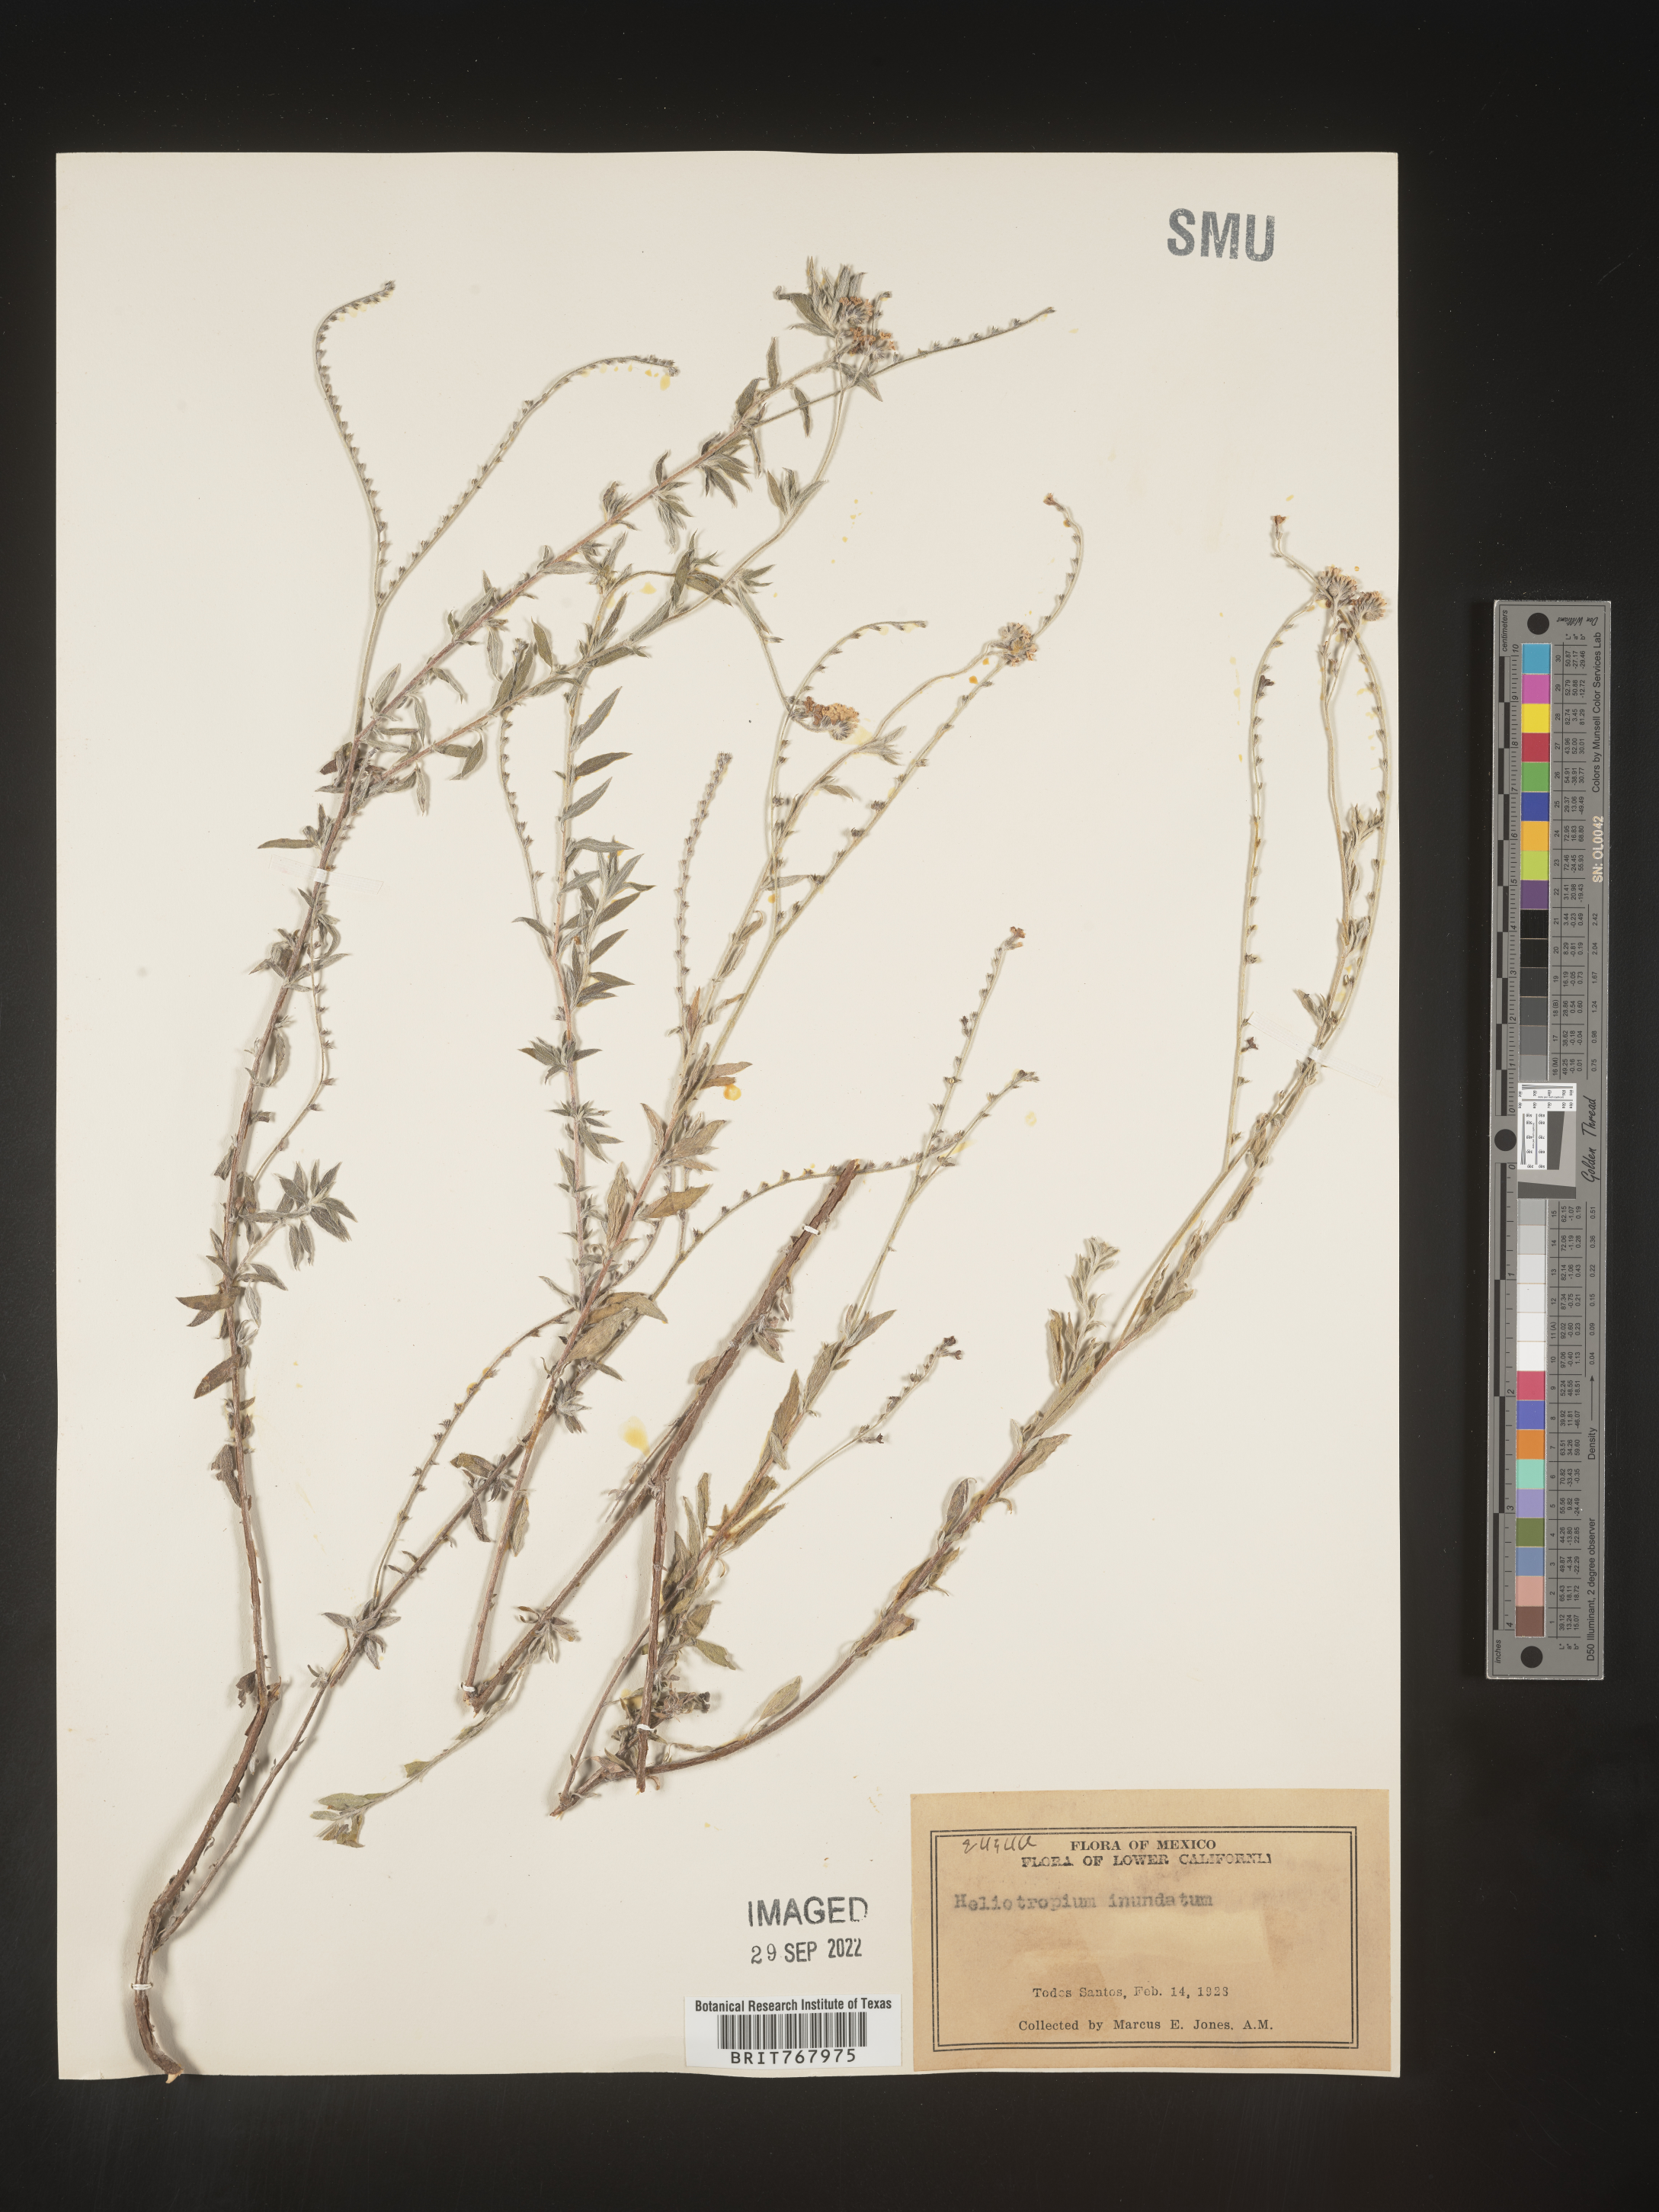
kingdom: Plantae
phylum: Tracheophyta
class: Magnoliopsida
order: Boraginales
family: Heliotropiaceae
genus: Heliotropium
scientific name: Heliotropium
